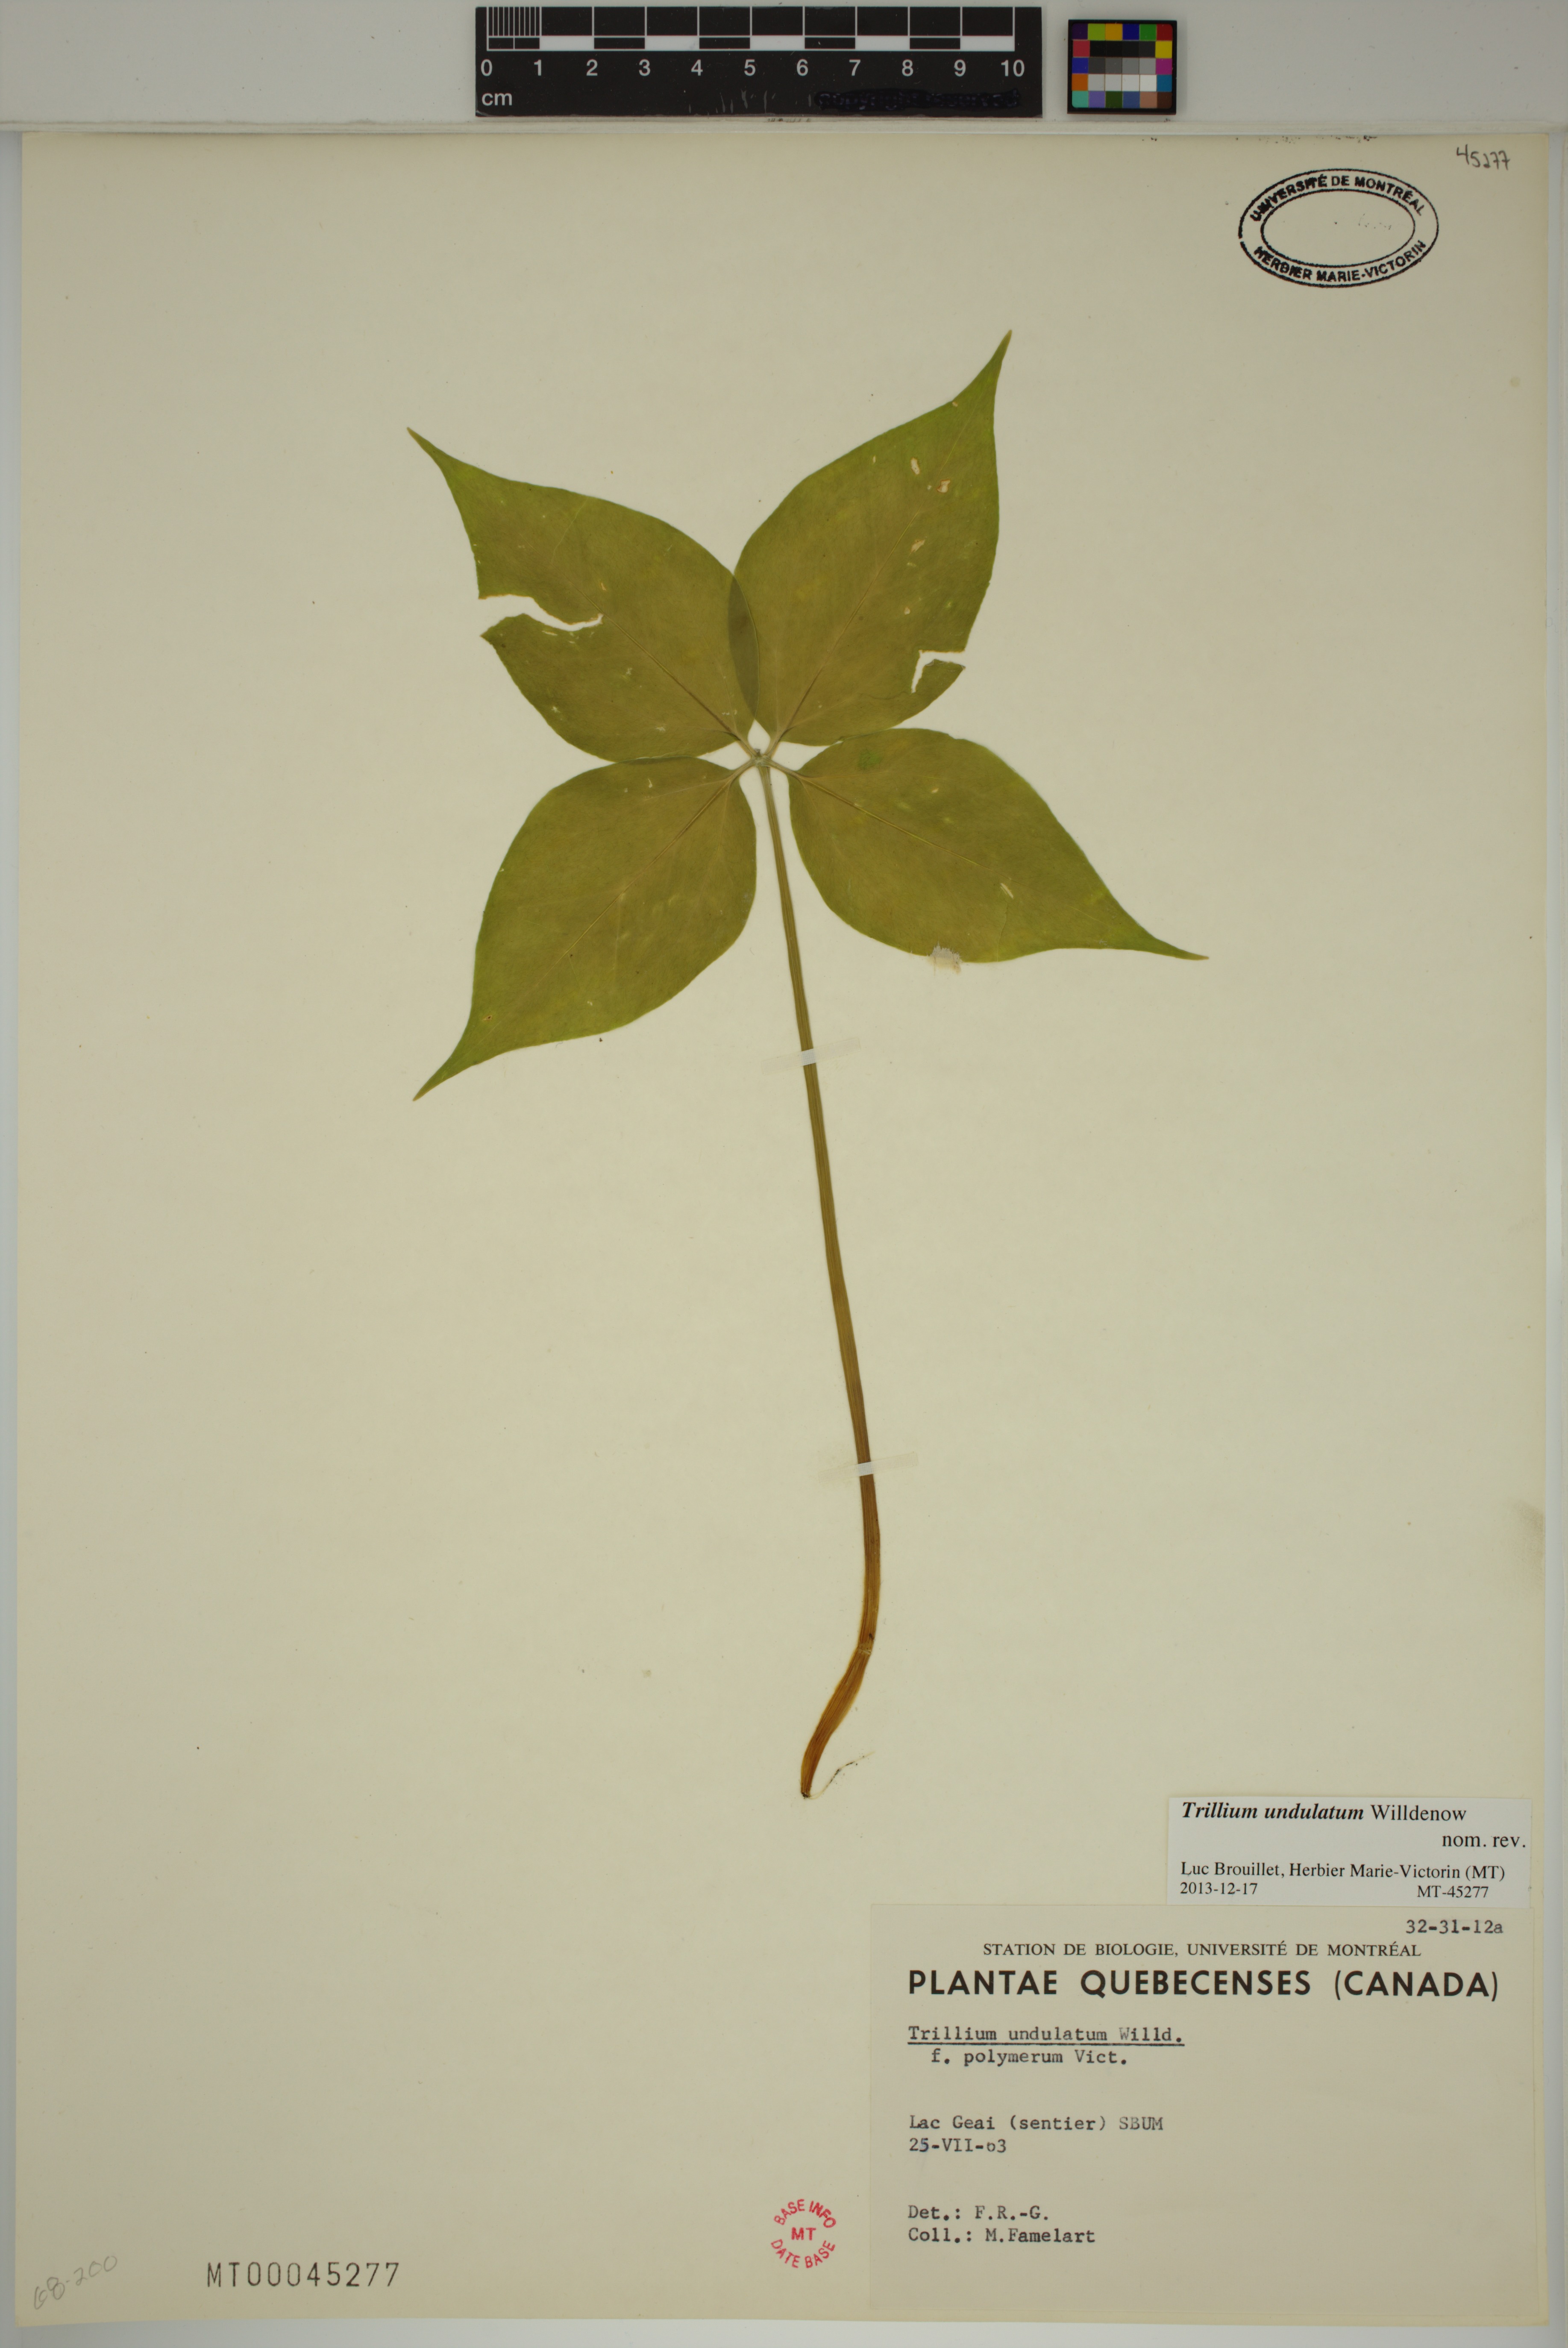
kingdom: Plantae
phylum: Tracheophyta
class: Liliopsida
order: Liliales
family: Melanthiaceae
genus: Trillium
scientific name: Trillium undulatum
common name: Paint trillium
